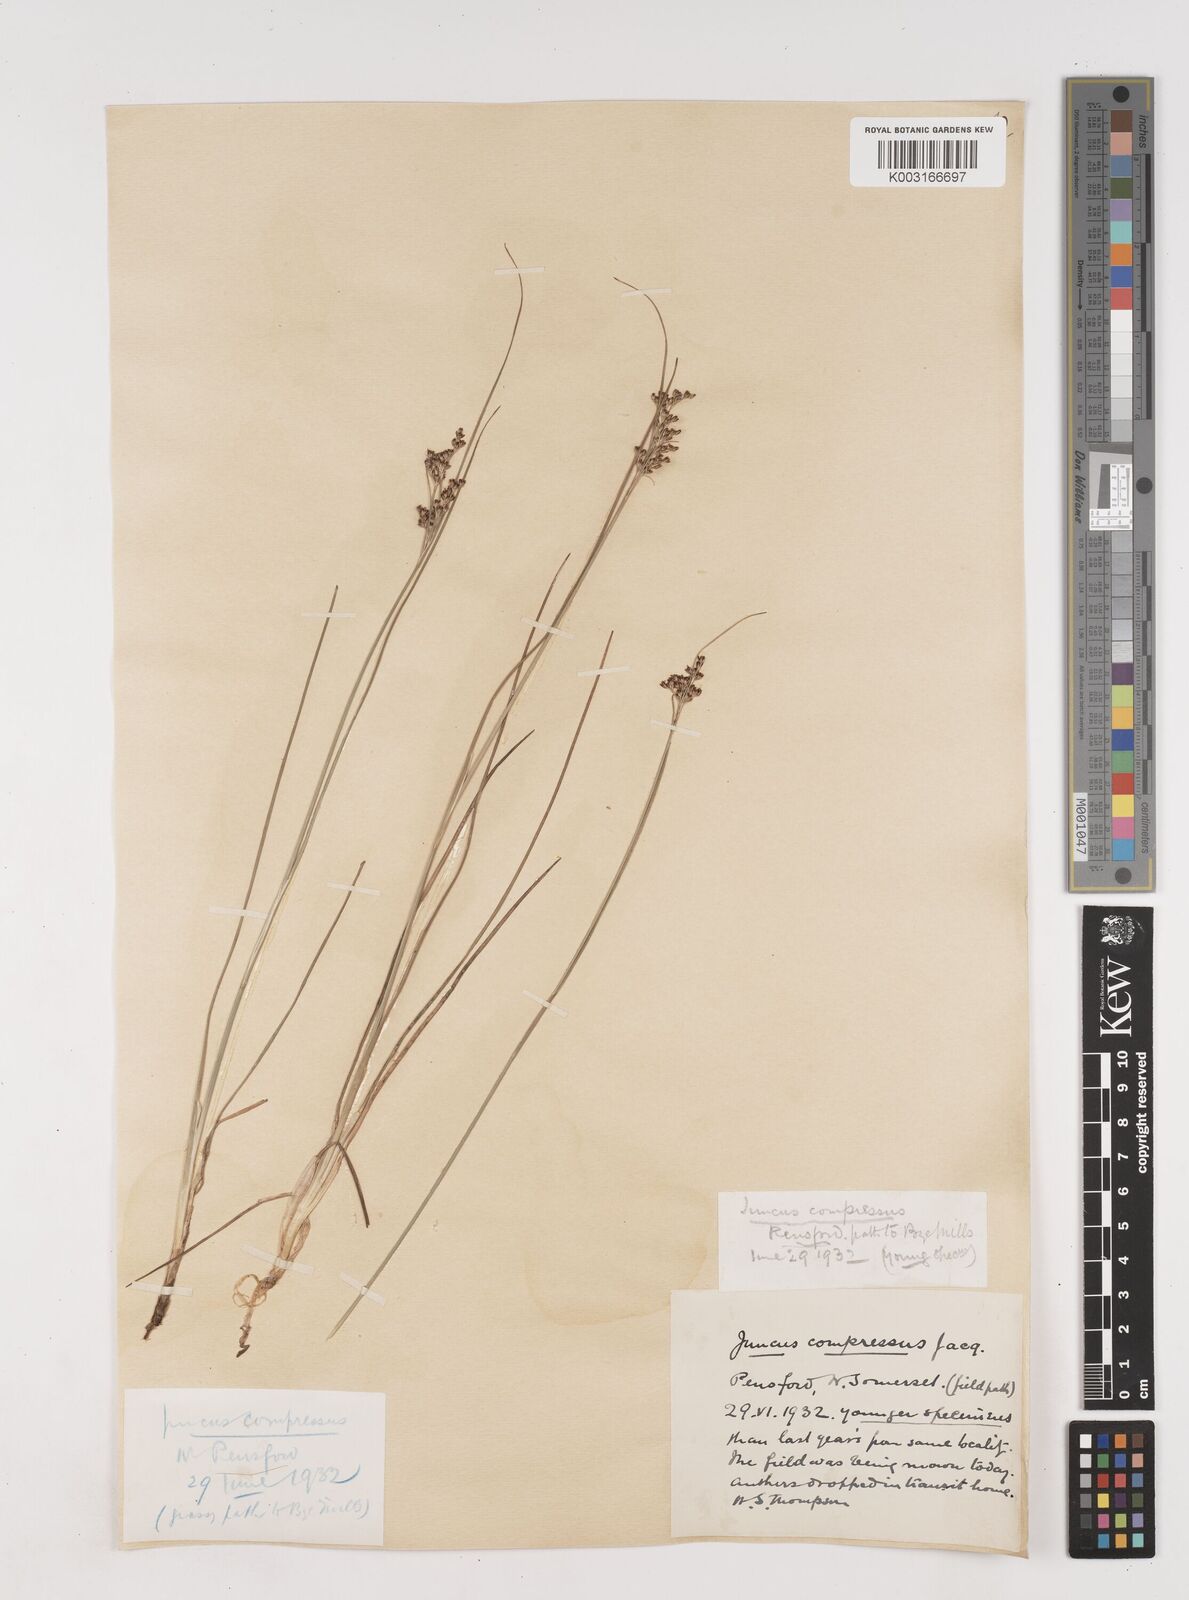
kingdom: Plantae
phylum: Tracheophyta
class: Liliopsida
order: Poales
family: Juncaceae
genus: Juncus
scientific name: Juncus compressus
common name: Round-fruited rush
